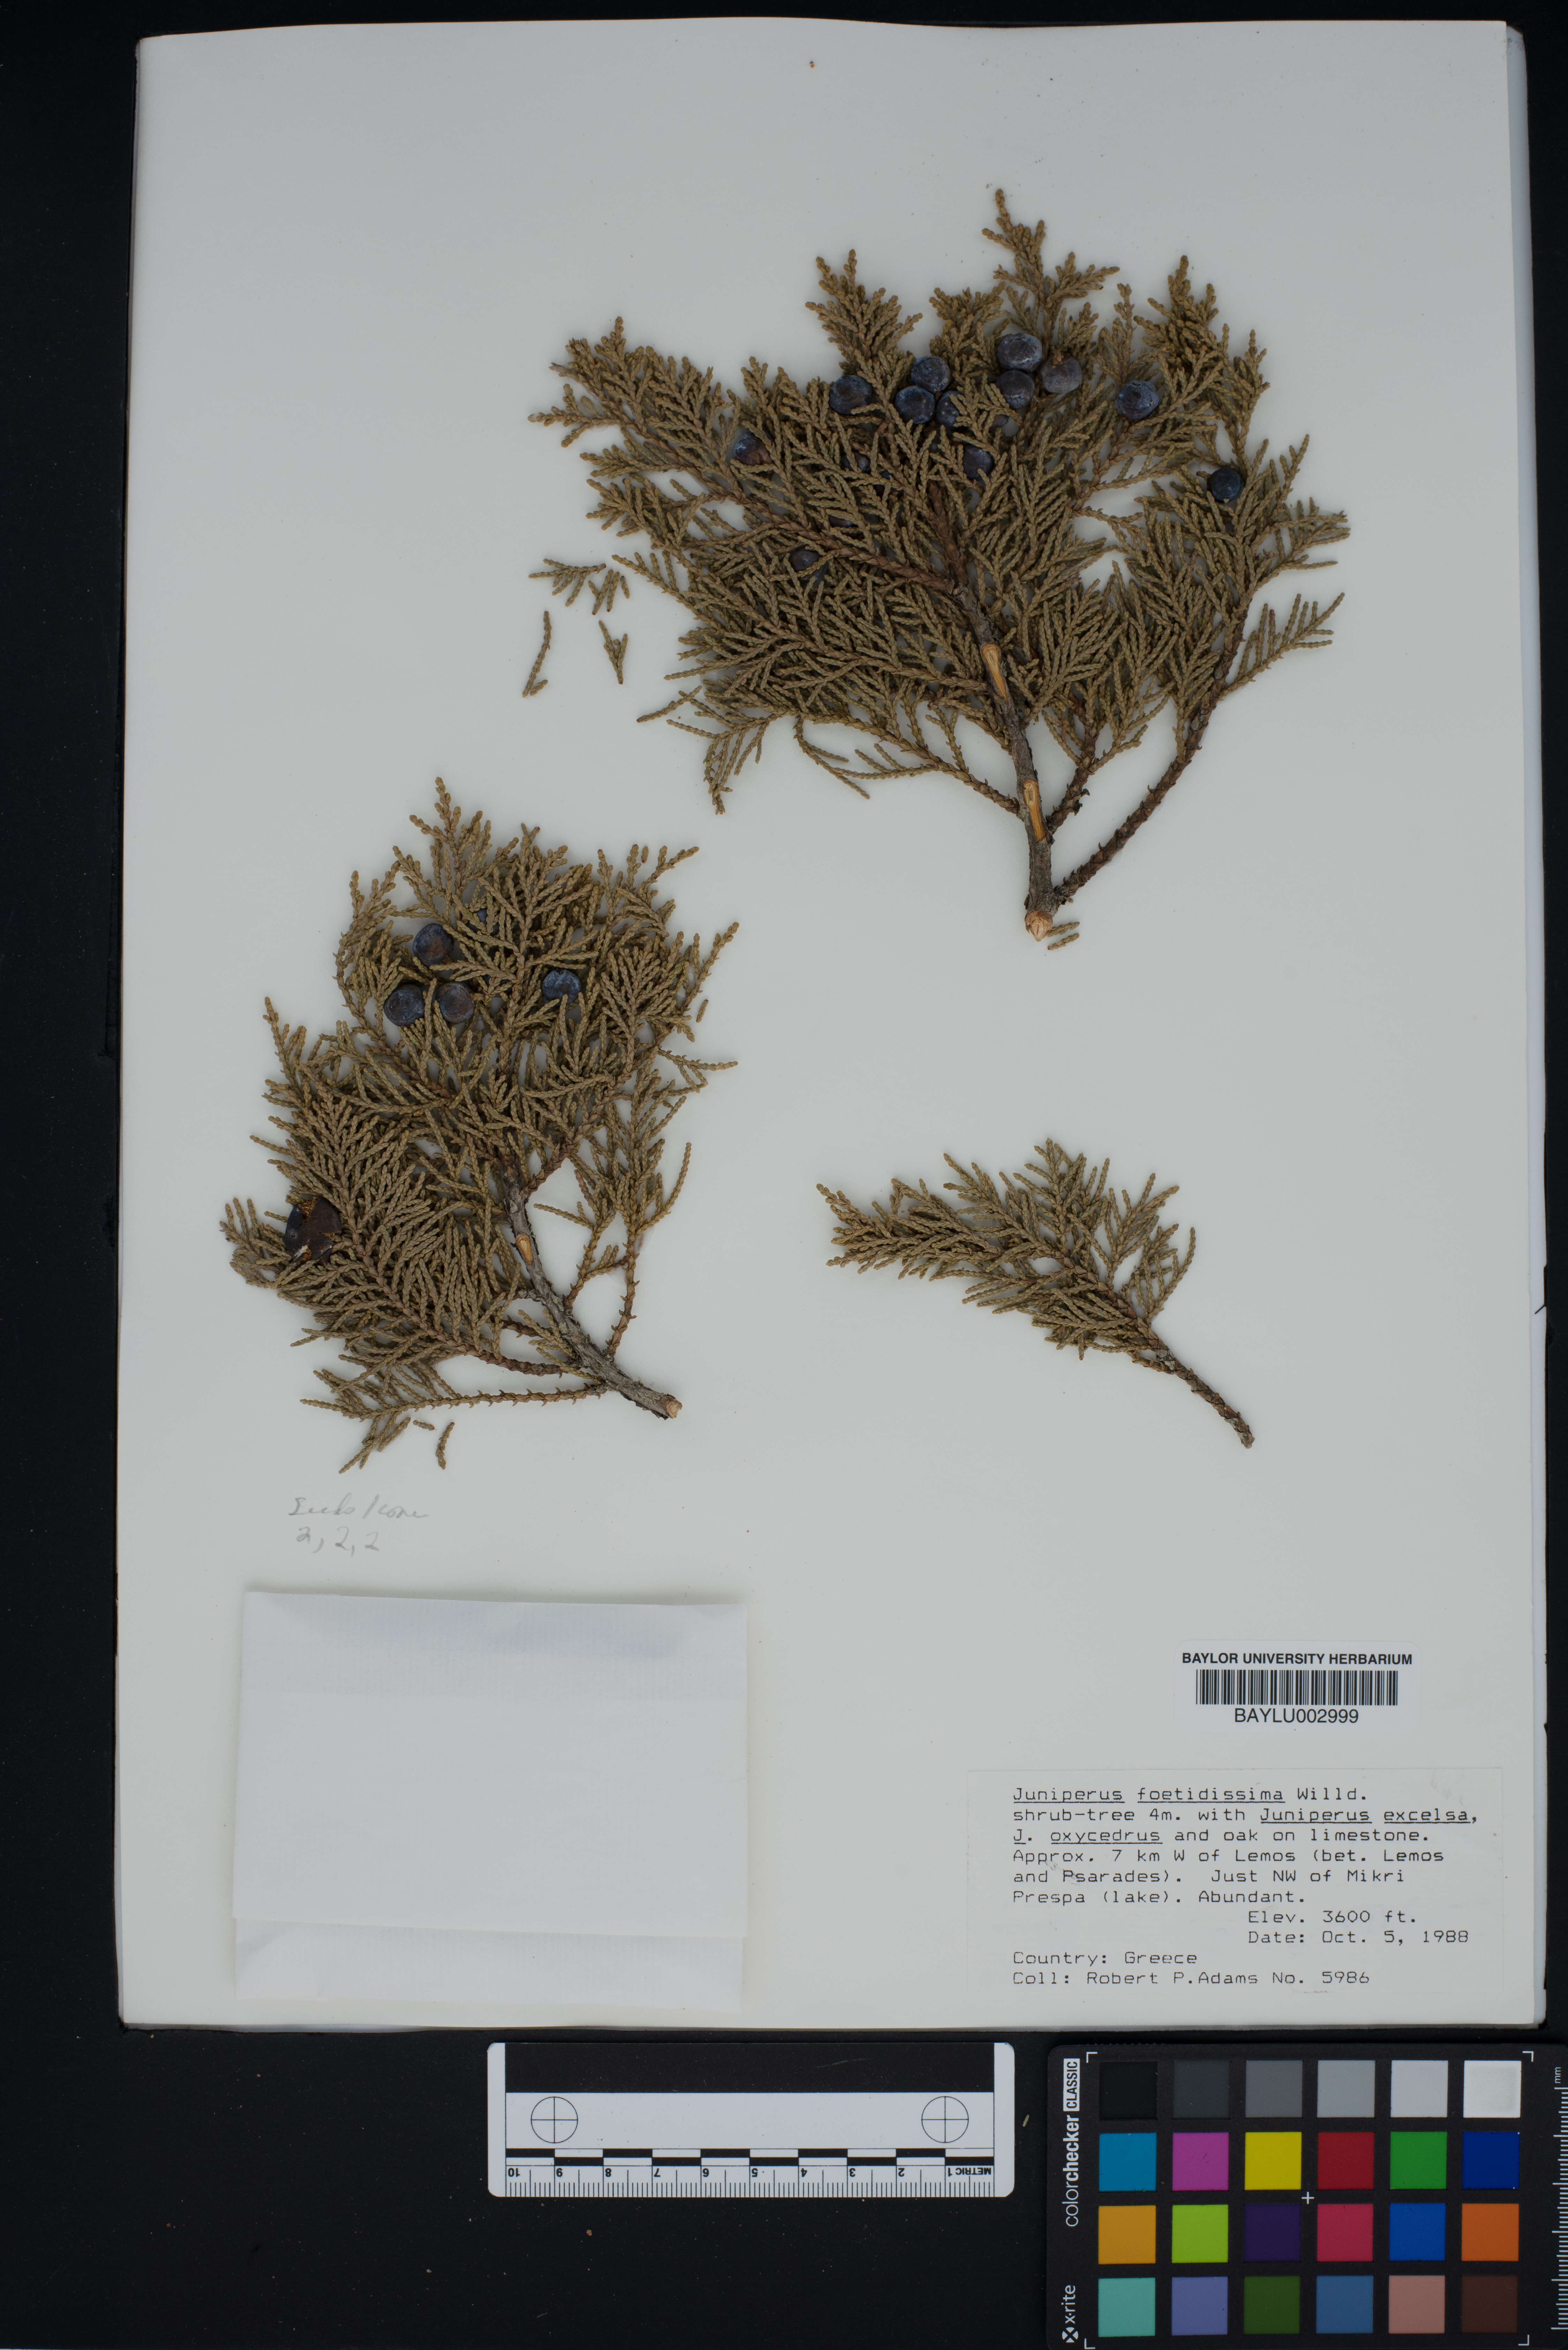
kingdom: Plantae
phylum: Tracheophyta
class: Pinopsida
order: Pinales
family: Cupressaceae
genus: Juniperus
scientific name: Juniperus foetidissima
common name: Stinking juniper
